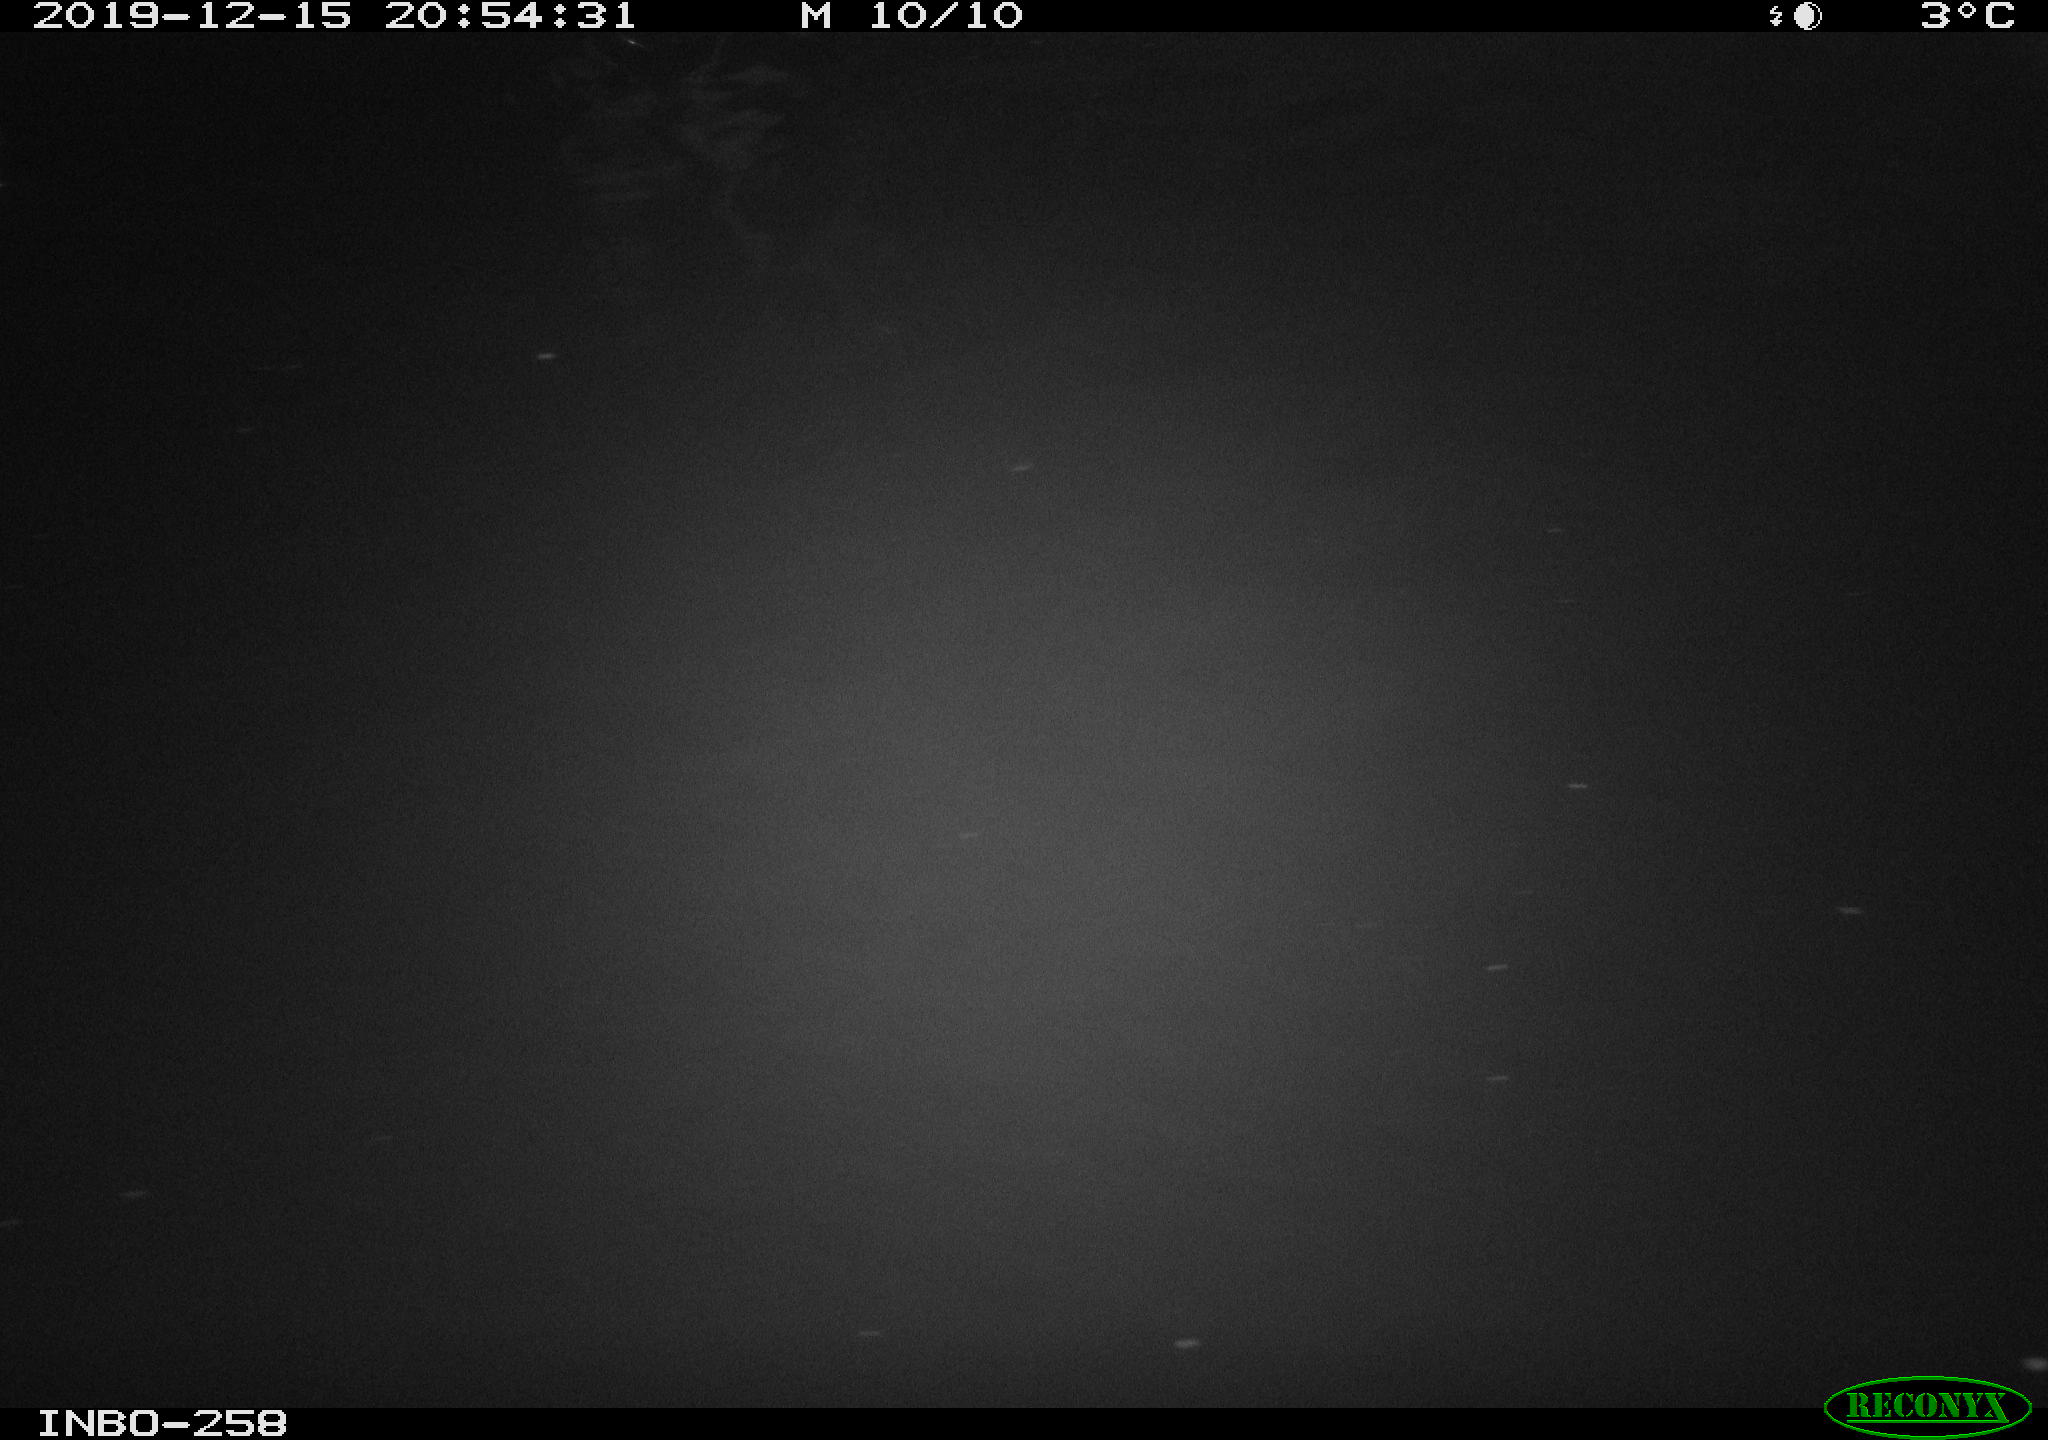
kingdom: Animalia
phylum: Chordata
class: Aves
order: Anseriformes
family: Anatidae
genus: Anas
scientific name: Anas platyrhynchos
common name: Mallard
